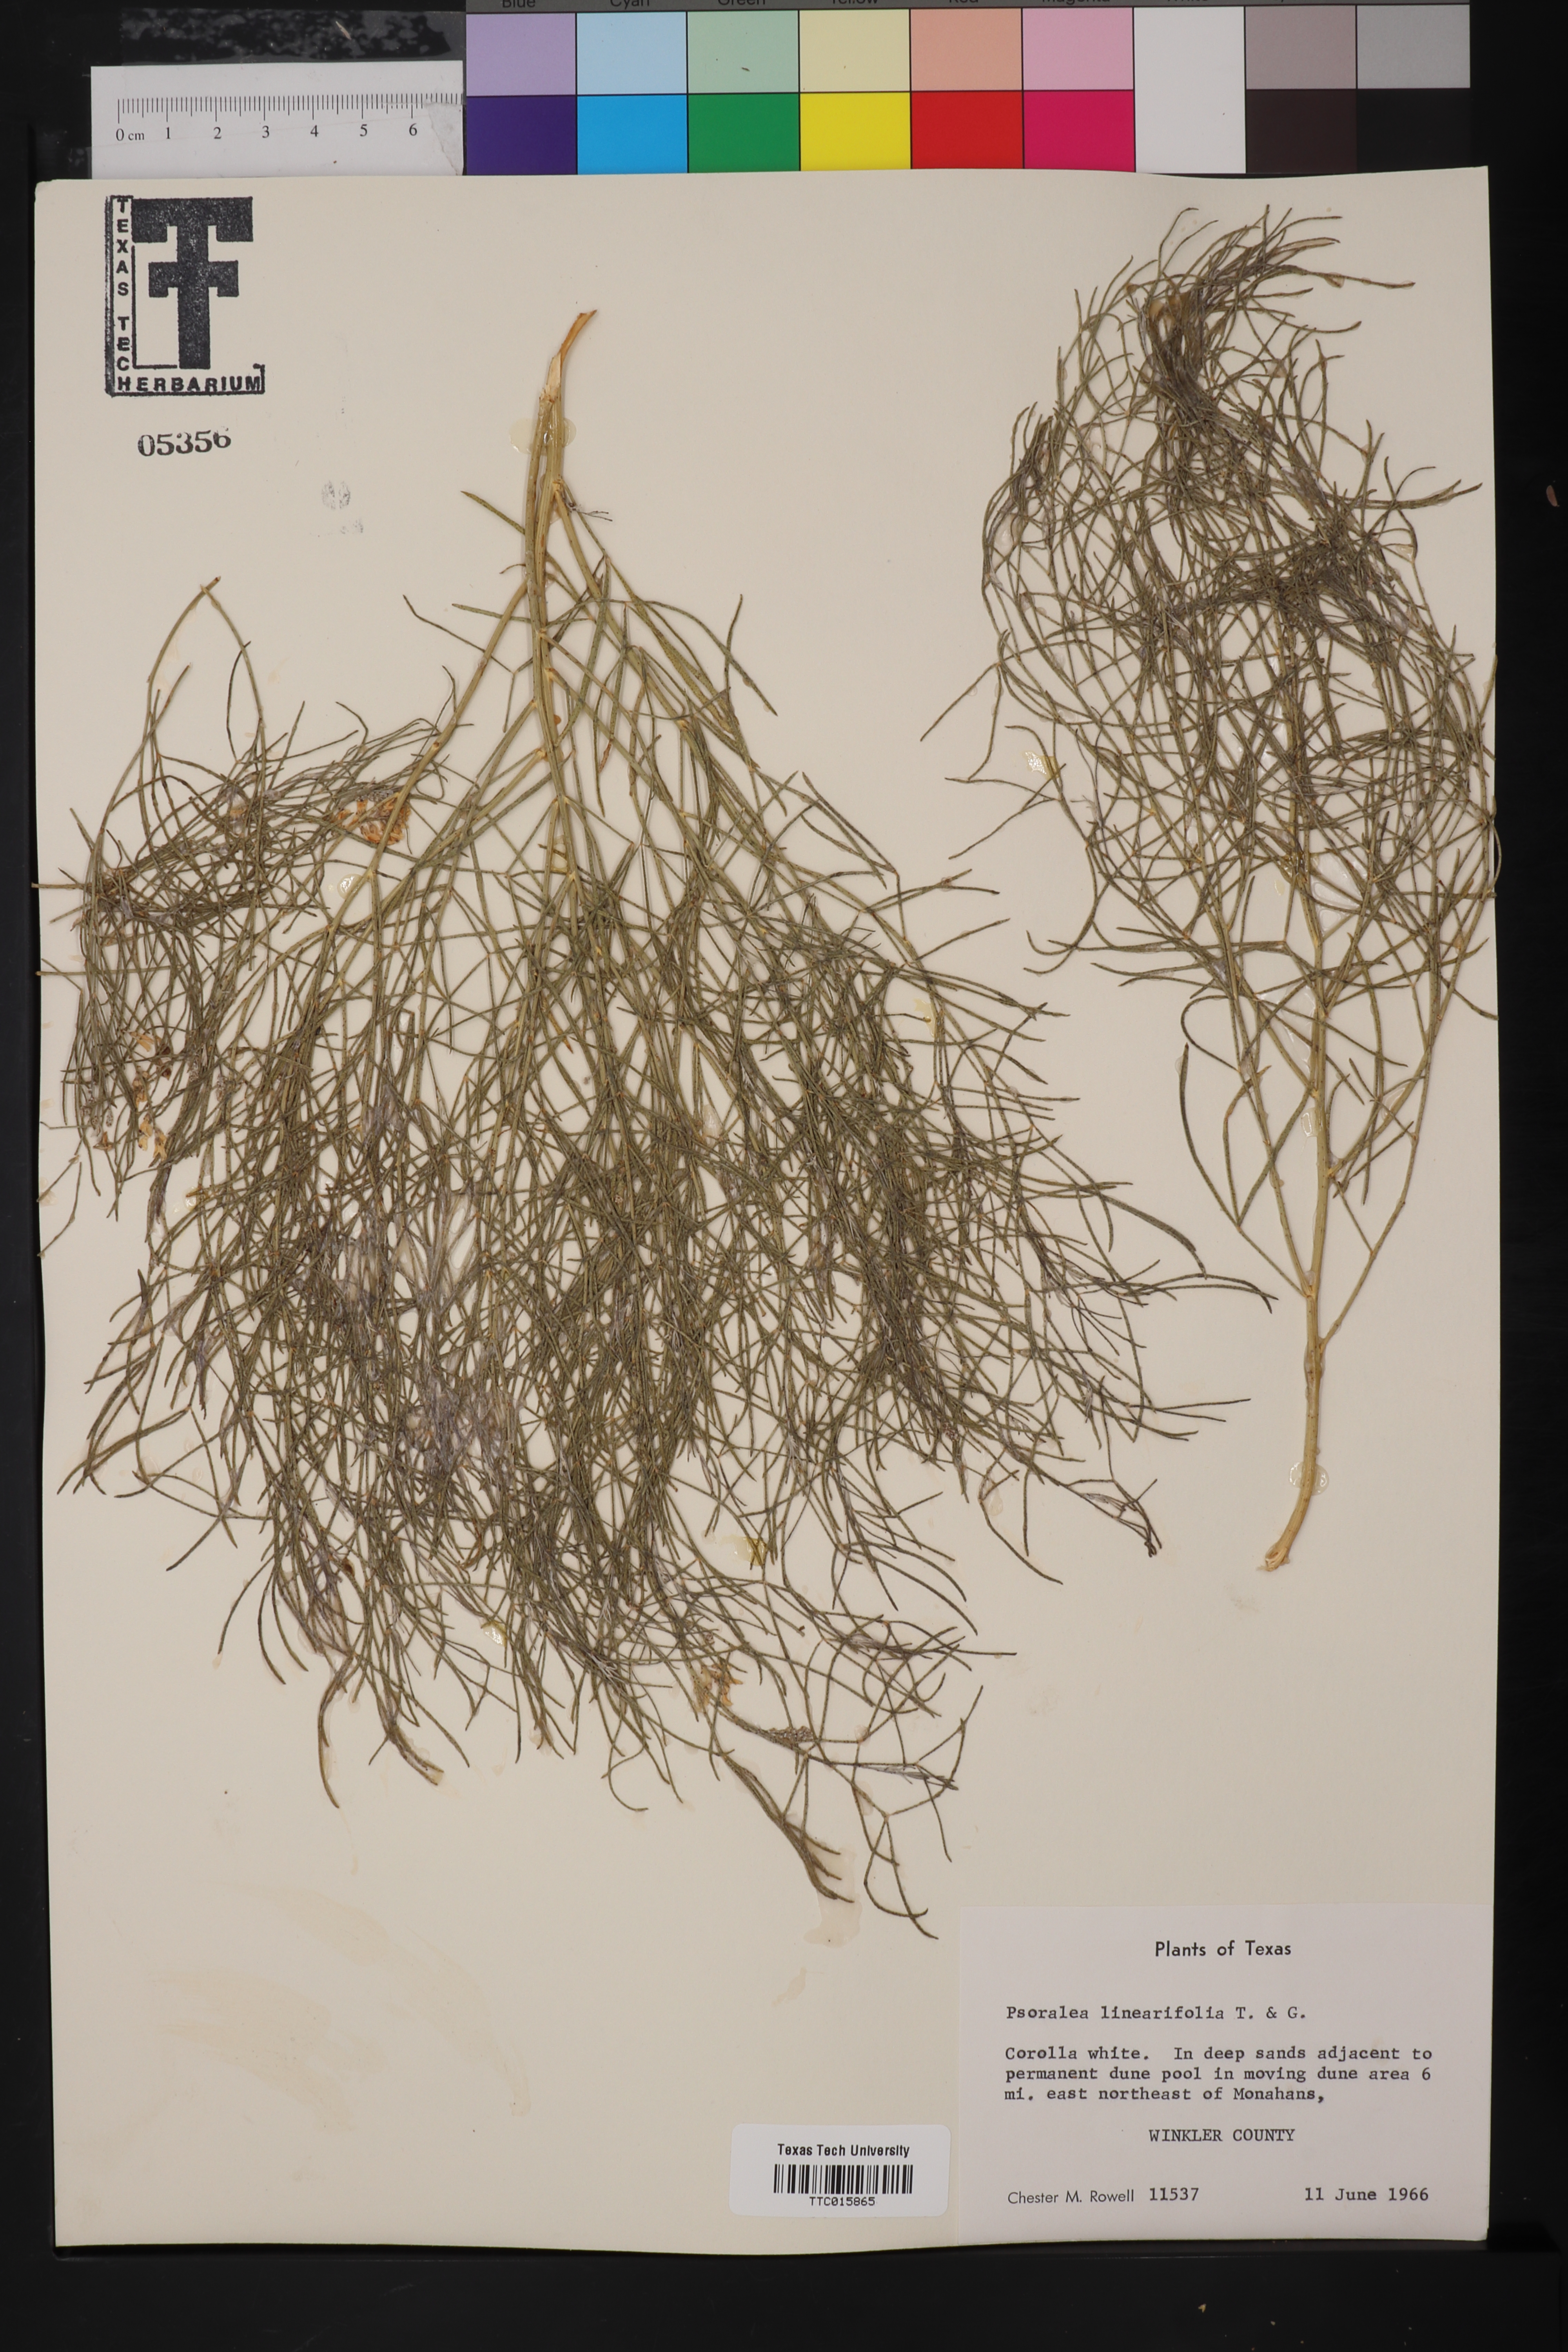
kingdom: Plantae
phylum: Tracheophyta
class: Magnoliopsida
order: Fabales
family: Fabaceae
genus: Pediomelum
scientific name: Pediomelum linearifolium
